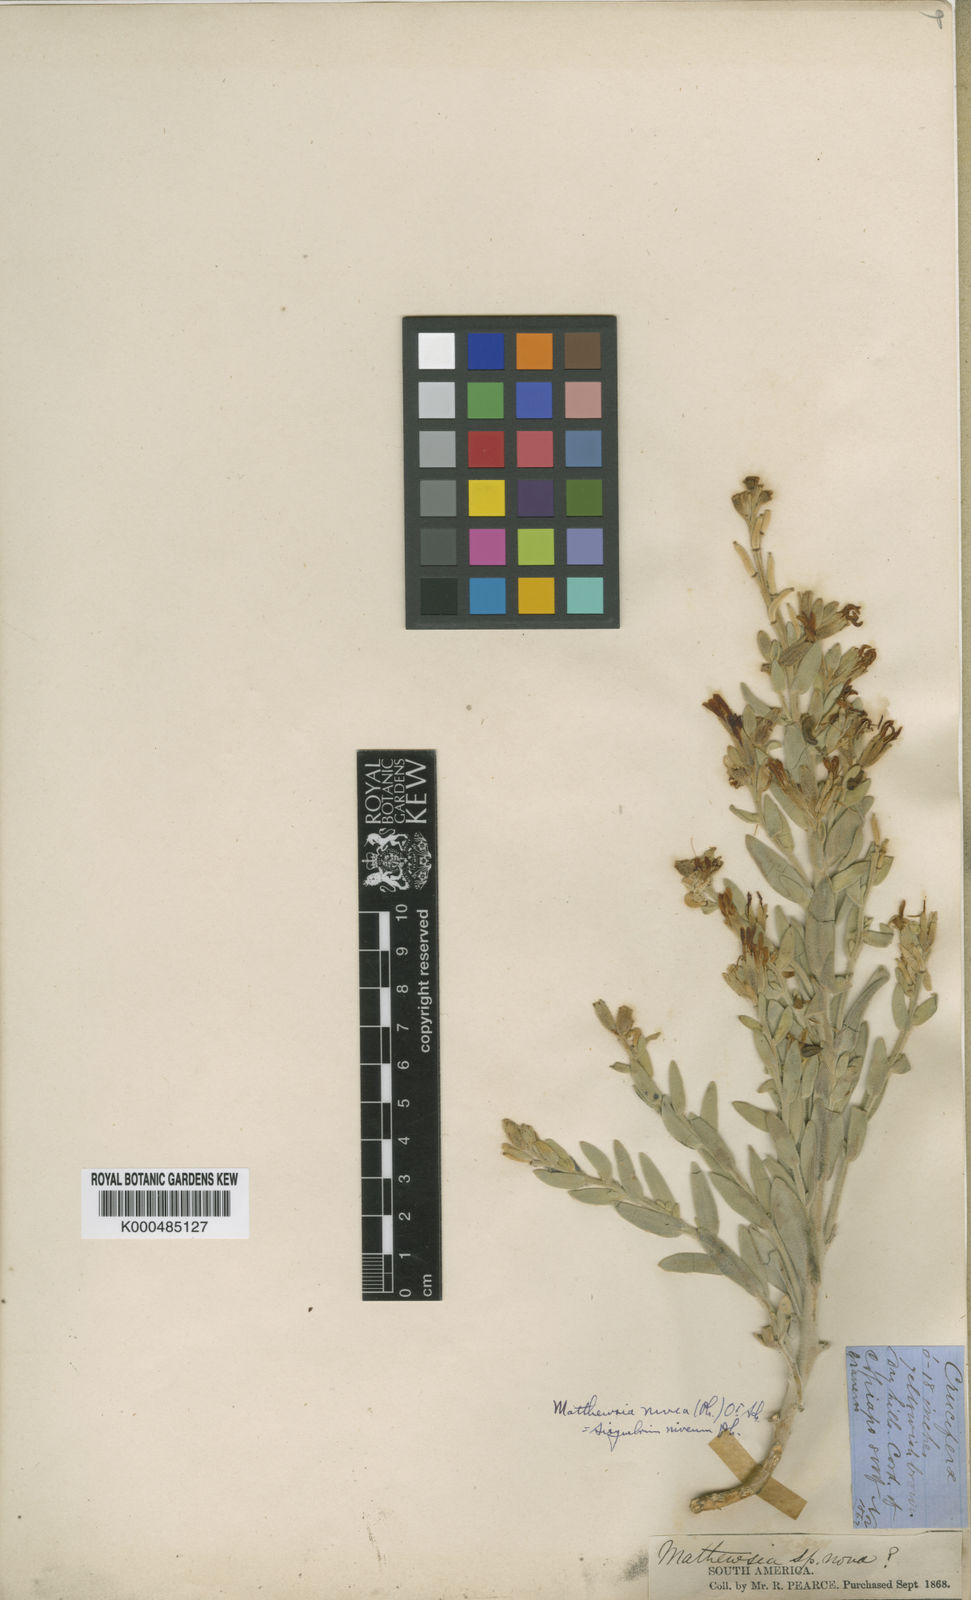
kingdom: Plantae
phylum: Tracheophyta
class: Magnoliopsida
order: Brassicales
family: Brassicaceae
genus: Atacama
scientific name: Atacama nivea
